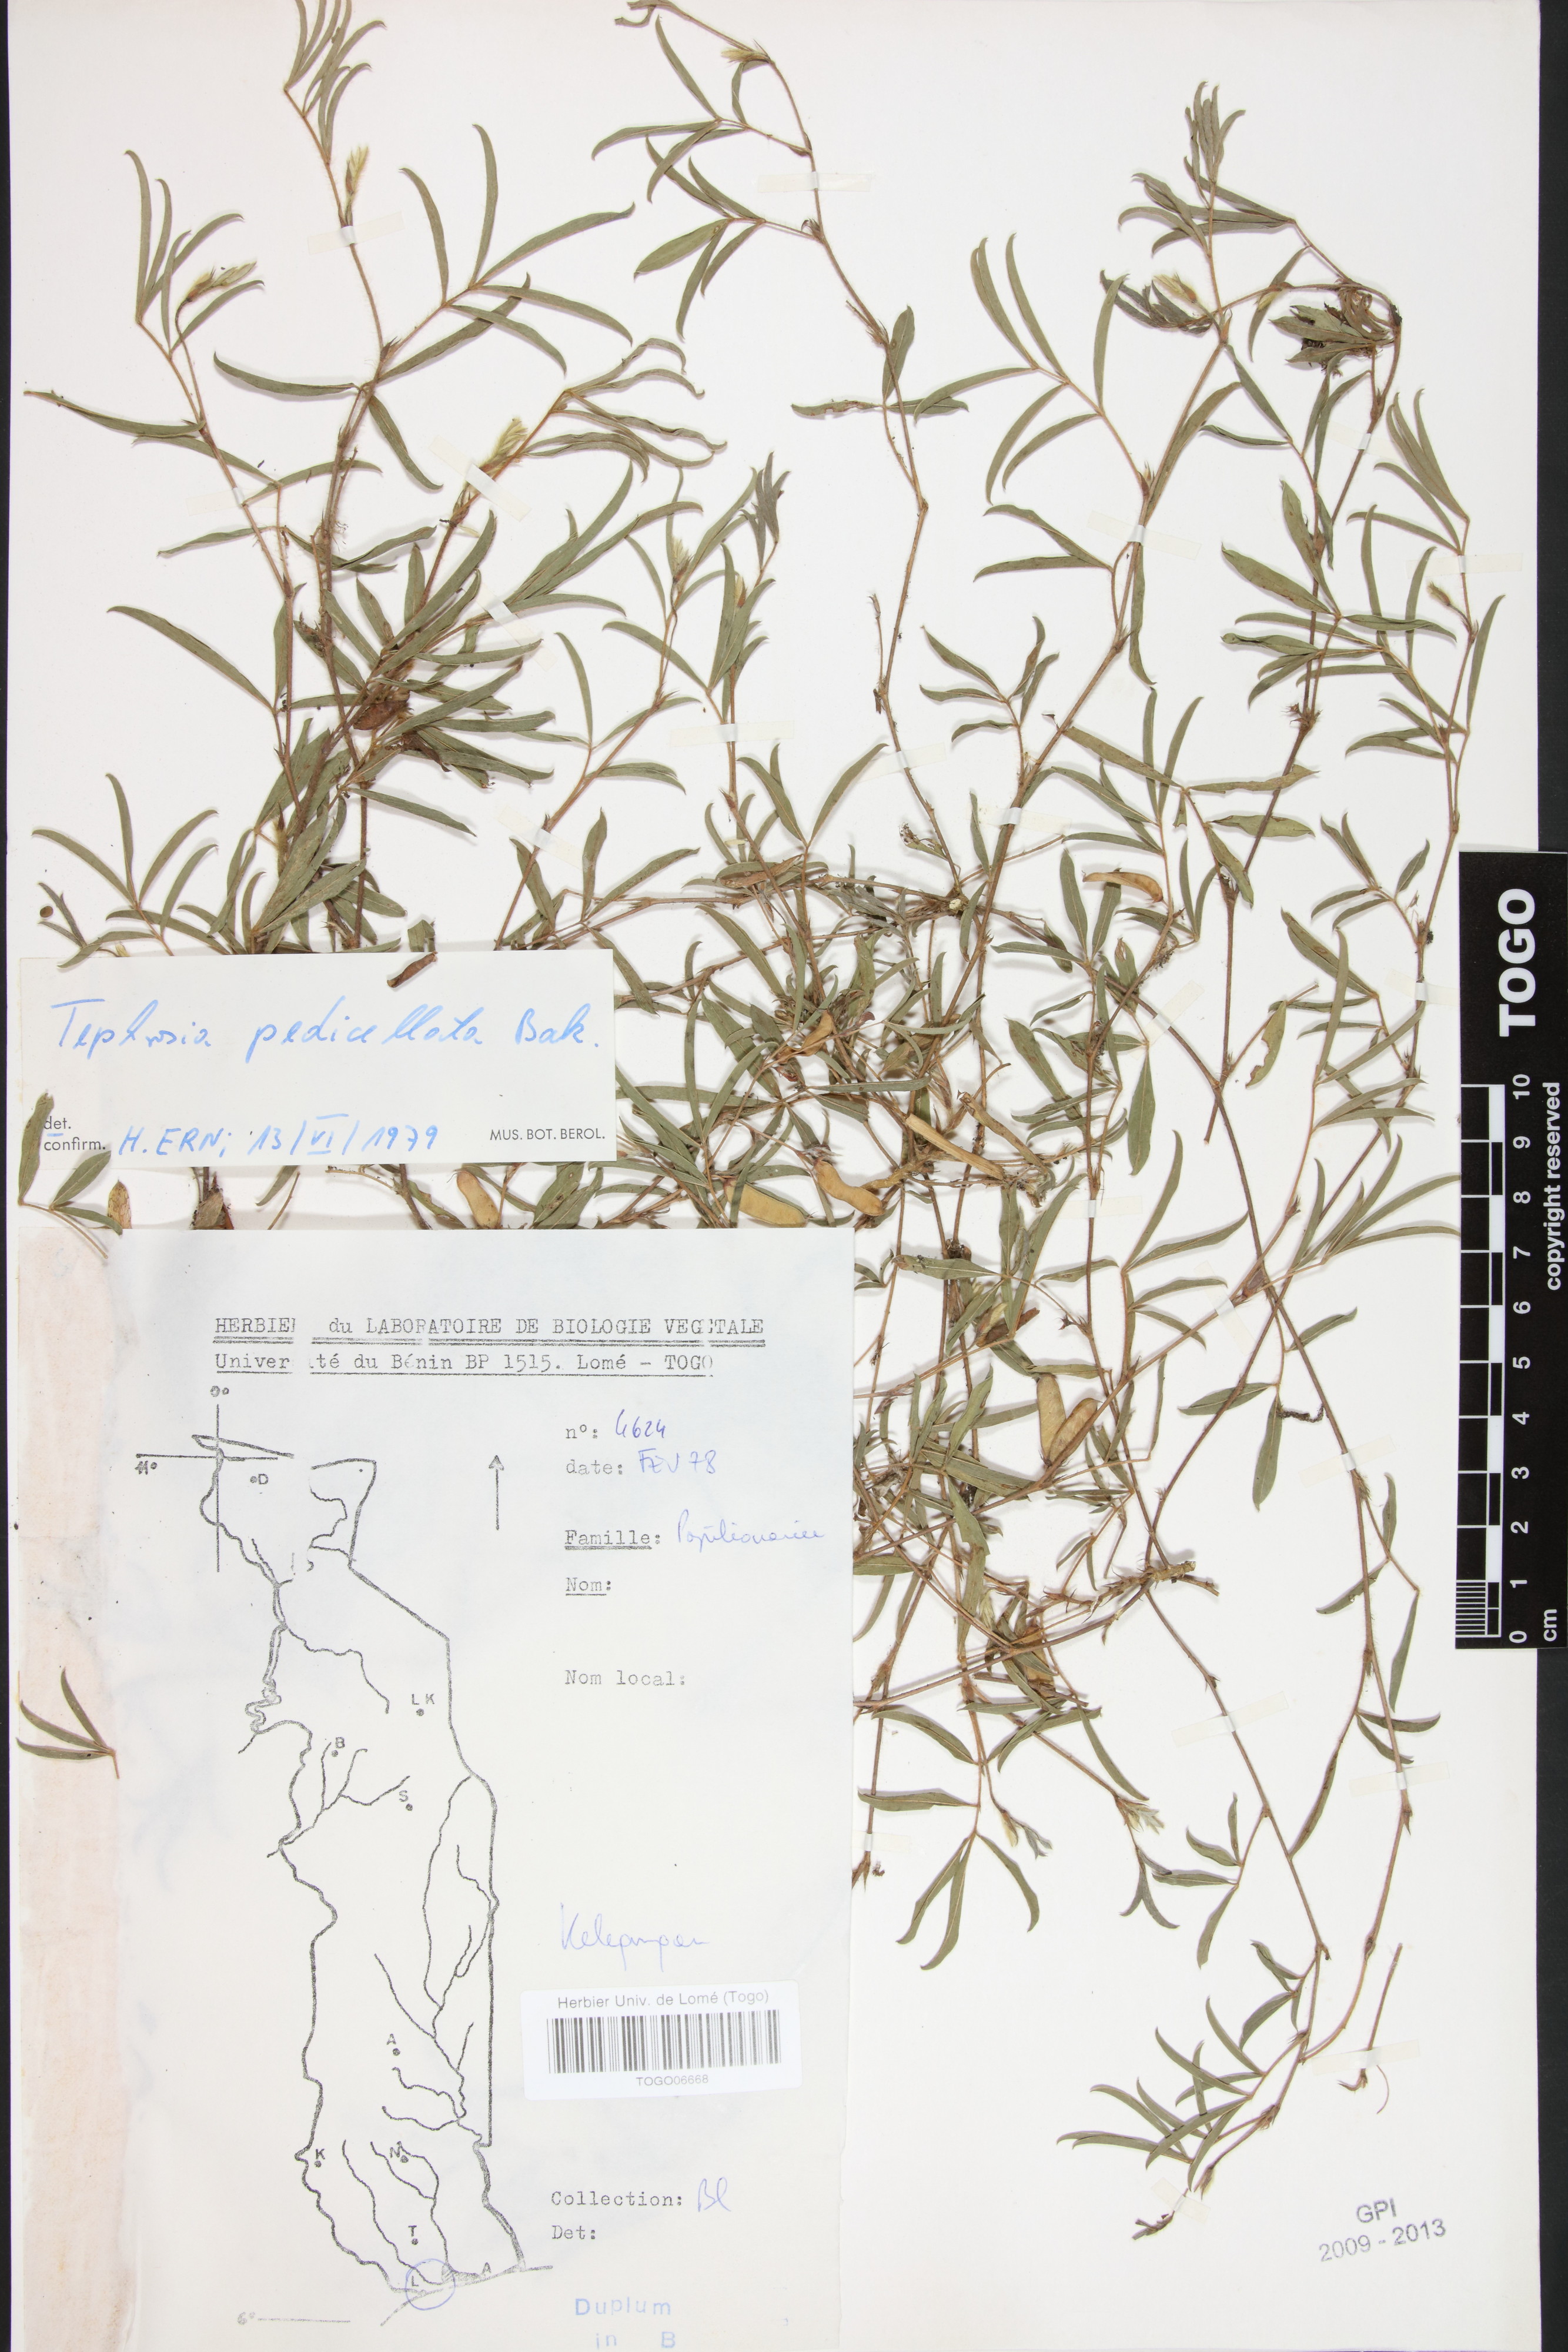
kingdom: Plantae
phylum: Tracheophyta
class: Magnoliopsida
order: Fabales
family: Fabaceae
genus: Tephrosia
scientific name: Tephrosia pedicellata
